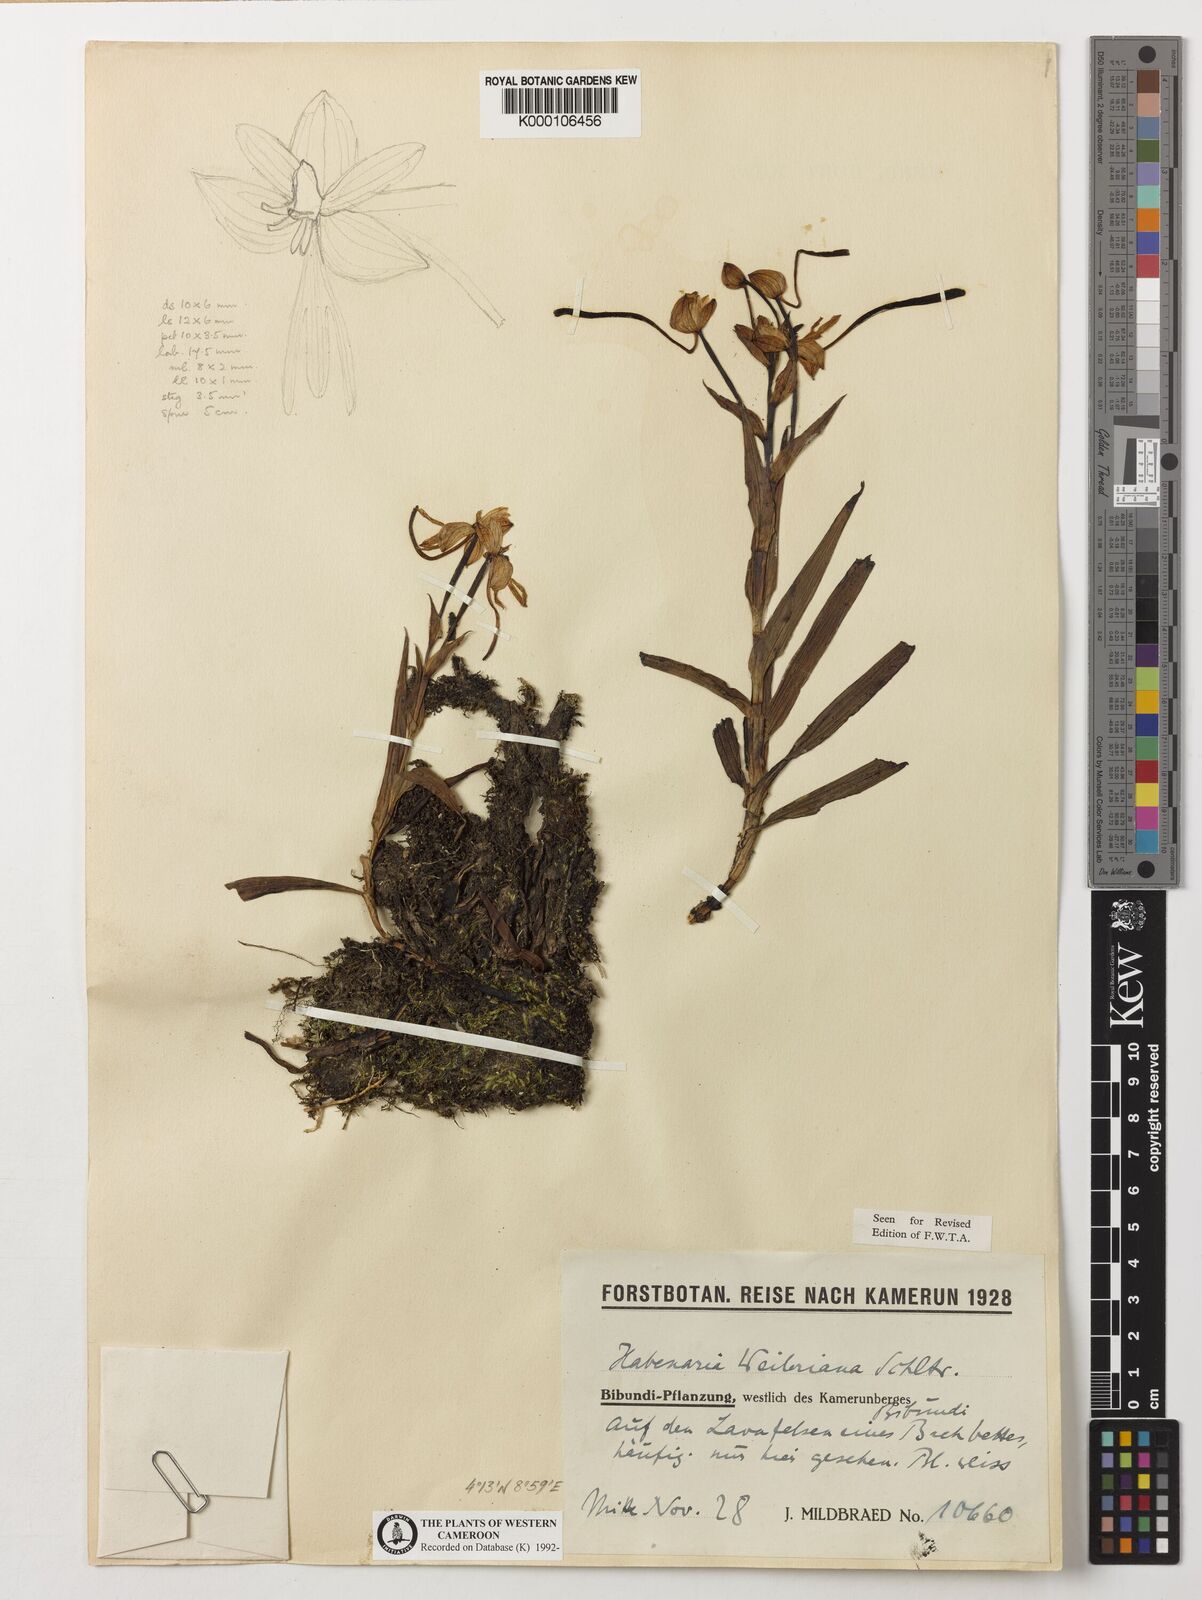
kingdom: Plantae
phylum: Tracheophyta
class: Liliopsida
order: Asparagales
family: Orchidaceae
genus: Habenaria
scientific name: Habenaria weileriana
